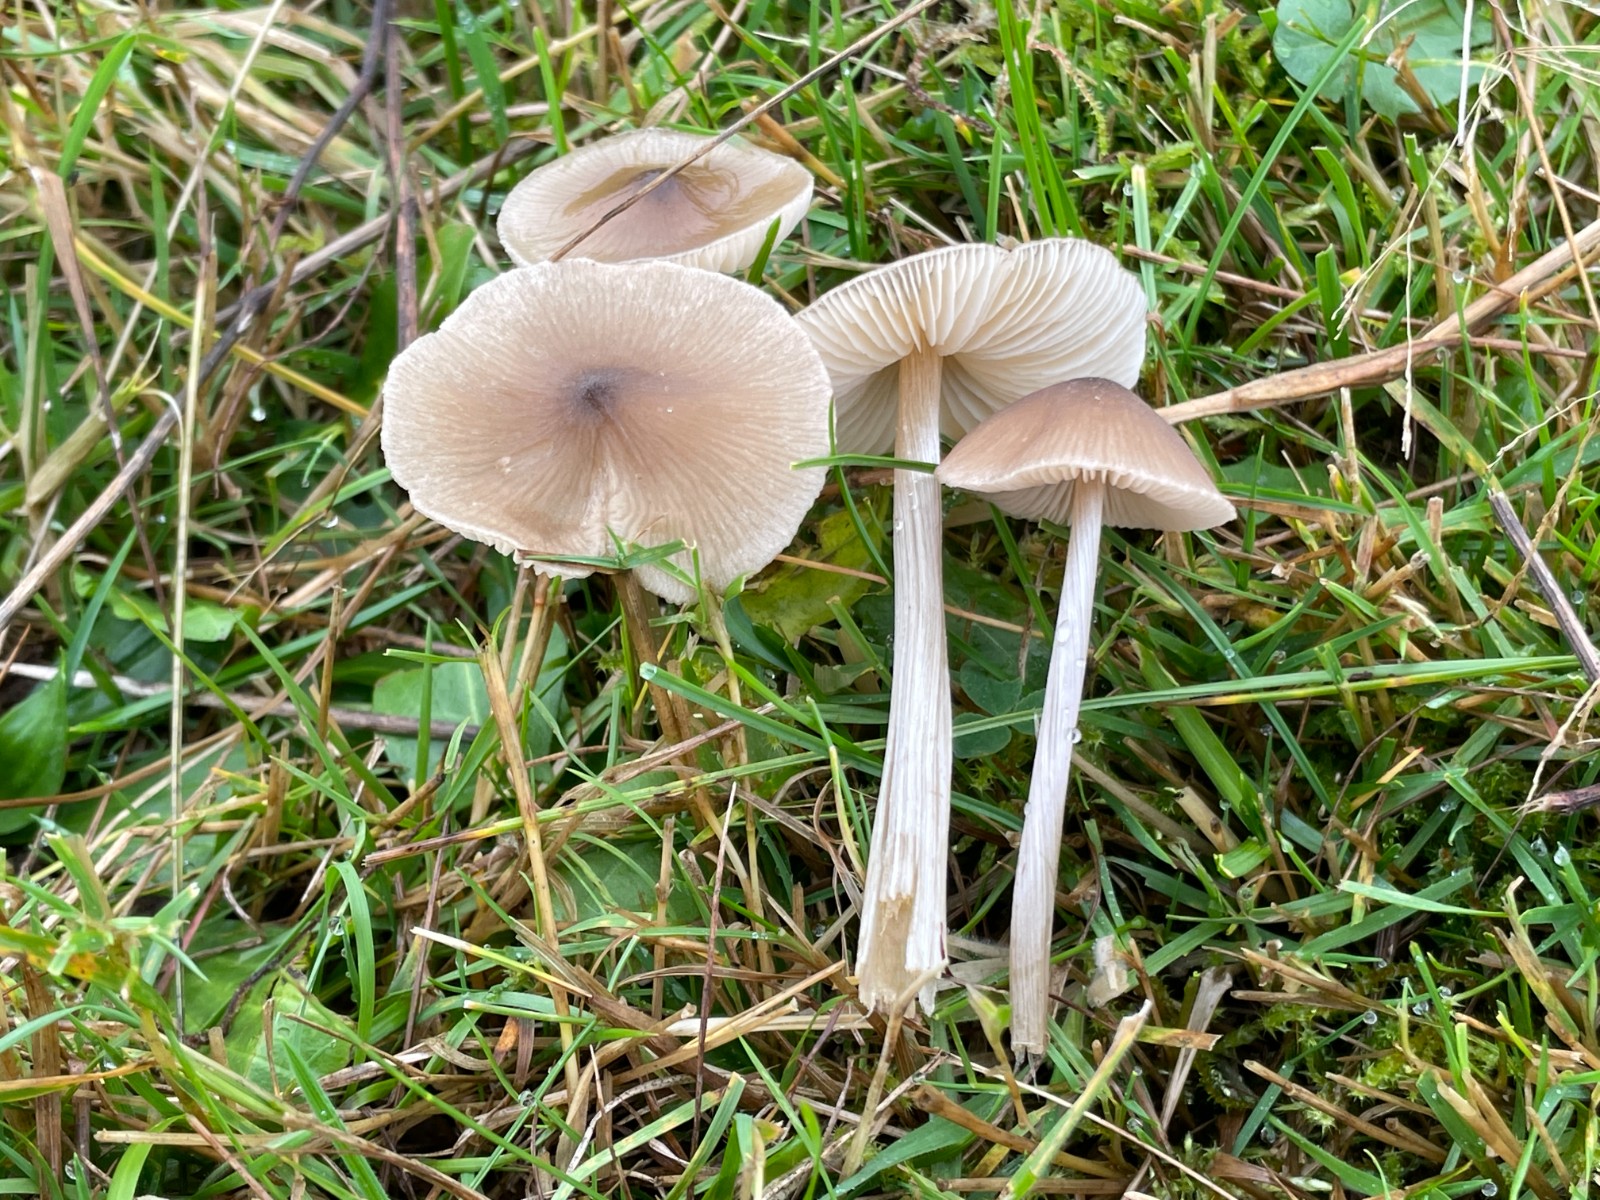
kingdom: Fungi
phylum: Basidiomycota
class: Agaricomycetes
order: Agaricales
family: Entolomataceae
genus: Entoloma
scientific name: Entoloma conferendum
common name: stjernesporet rødblad
